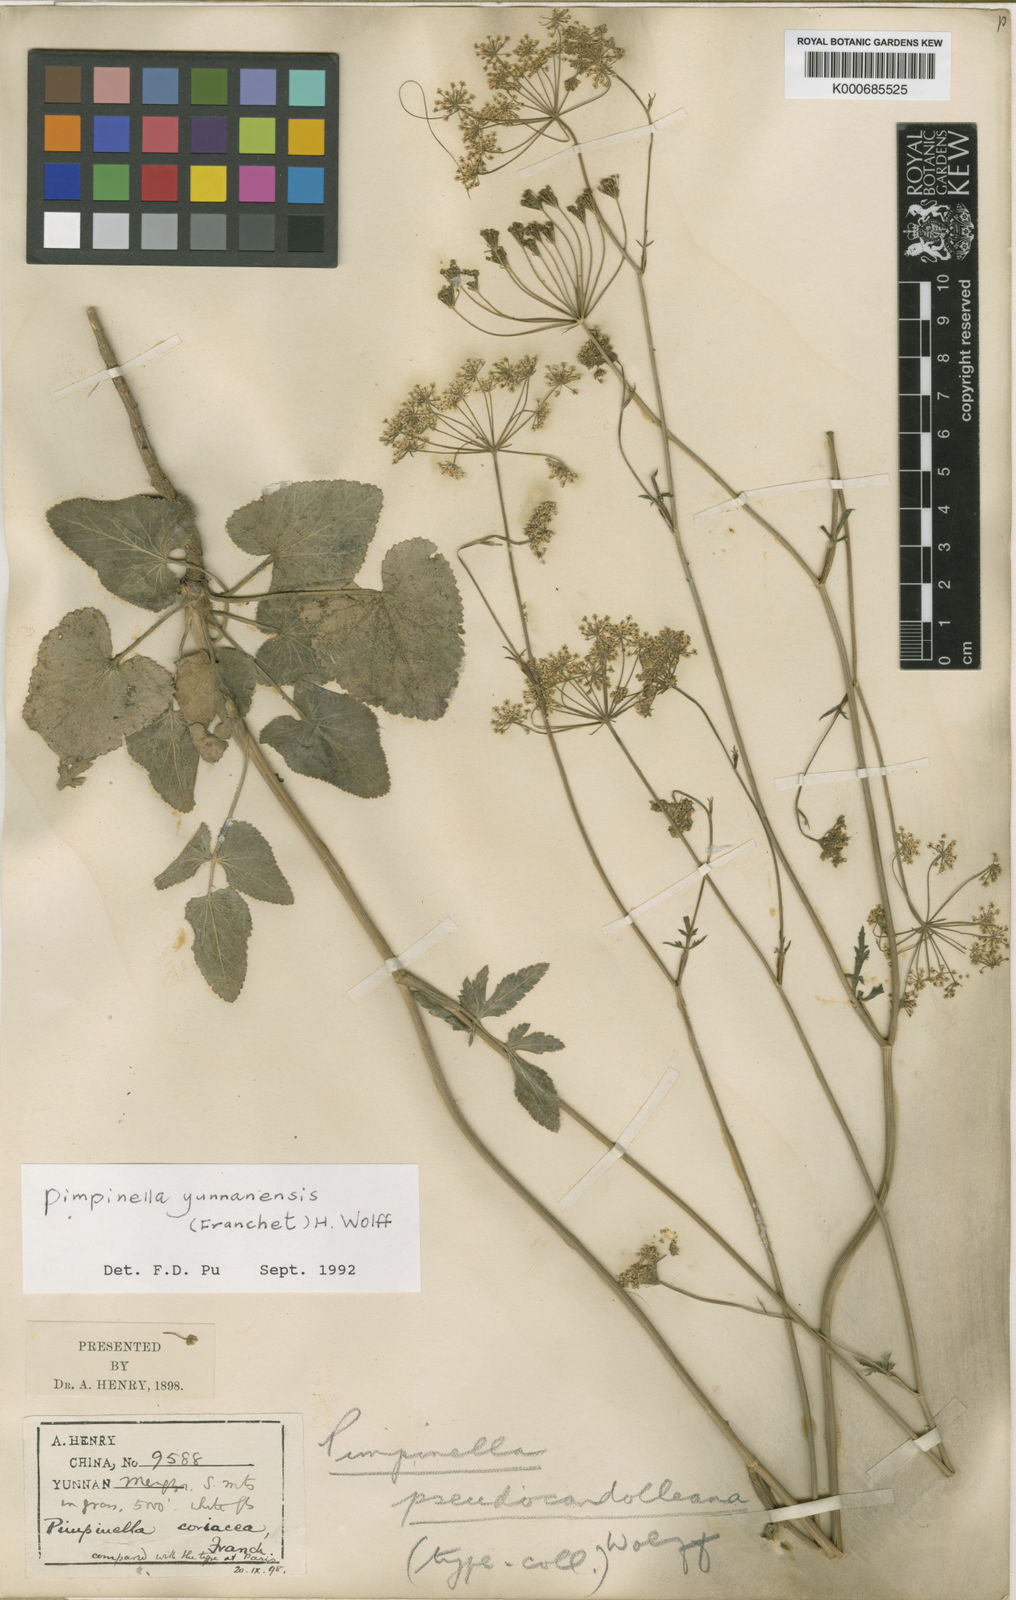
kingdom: Plantae
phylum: Tracheophyta
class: Magnoliopsida
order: Apiales
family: Apiaceae
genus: Pimpinella
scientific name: Pimpinella coriacea
